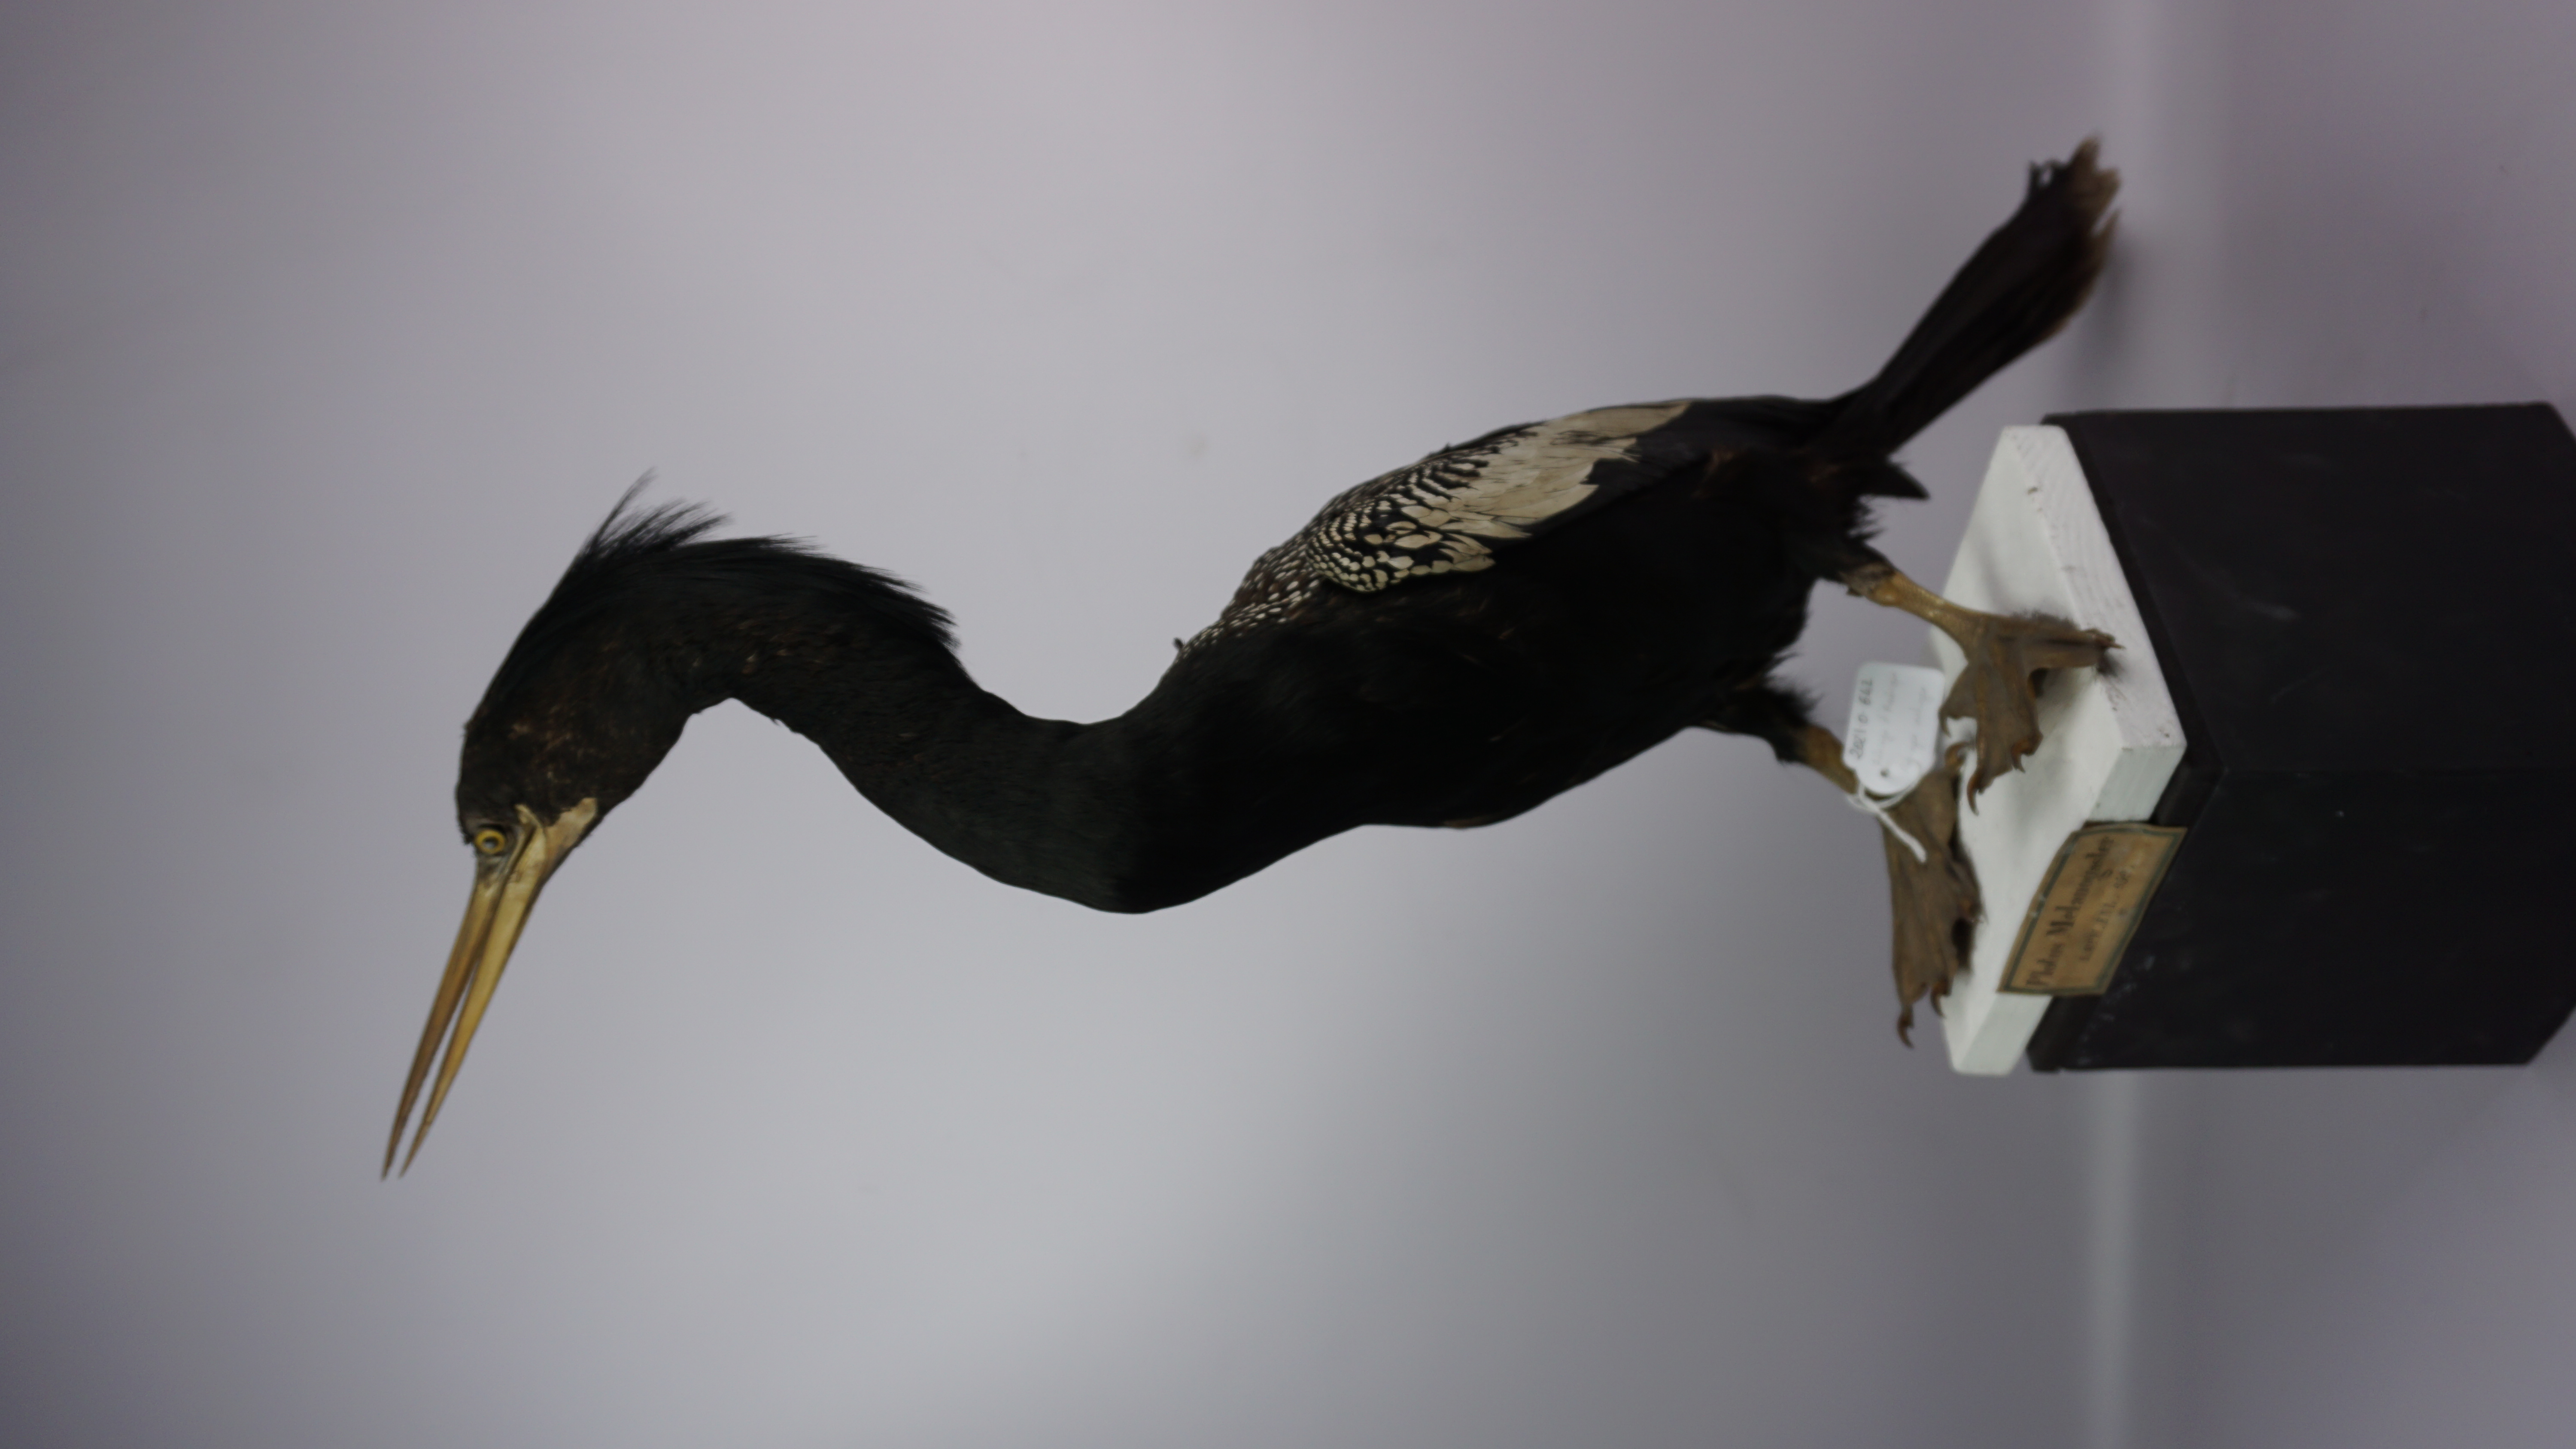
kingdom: Animalia
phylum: Chordata
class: Aves
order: Suliformes
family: Anhingidae
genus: Anhinga
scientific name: Anhinga anhinga
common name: Anhinga
